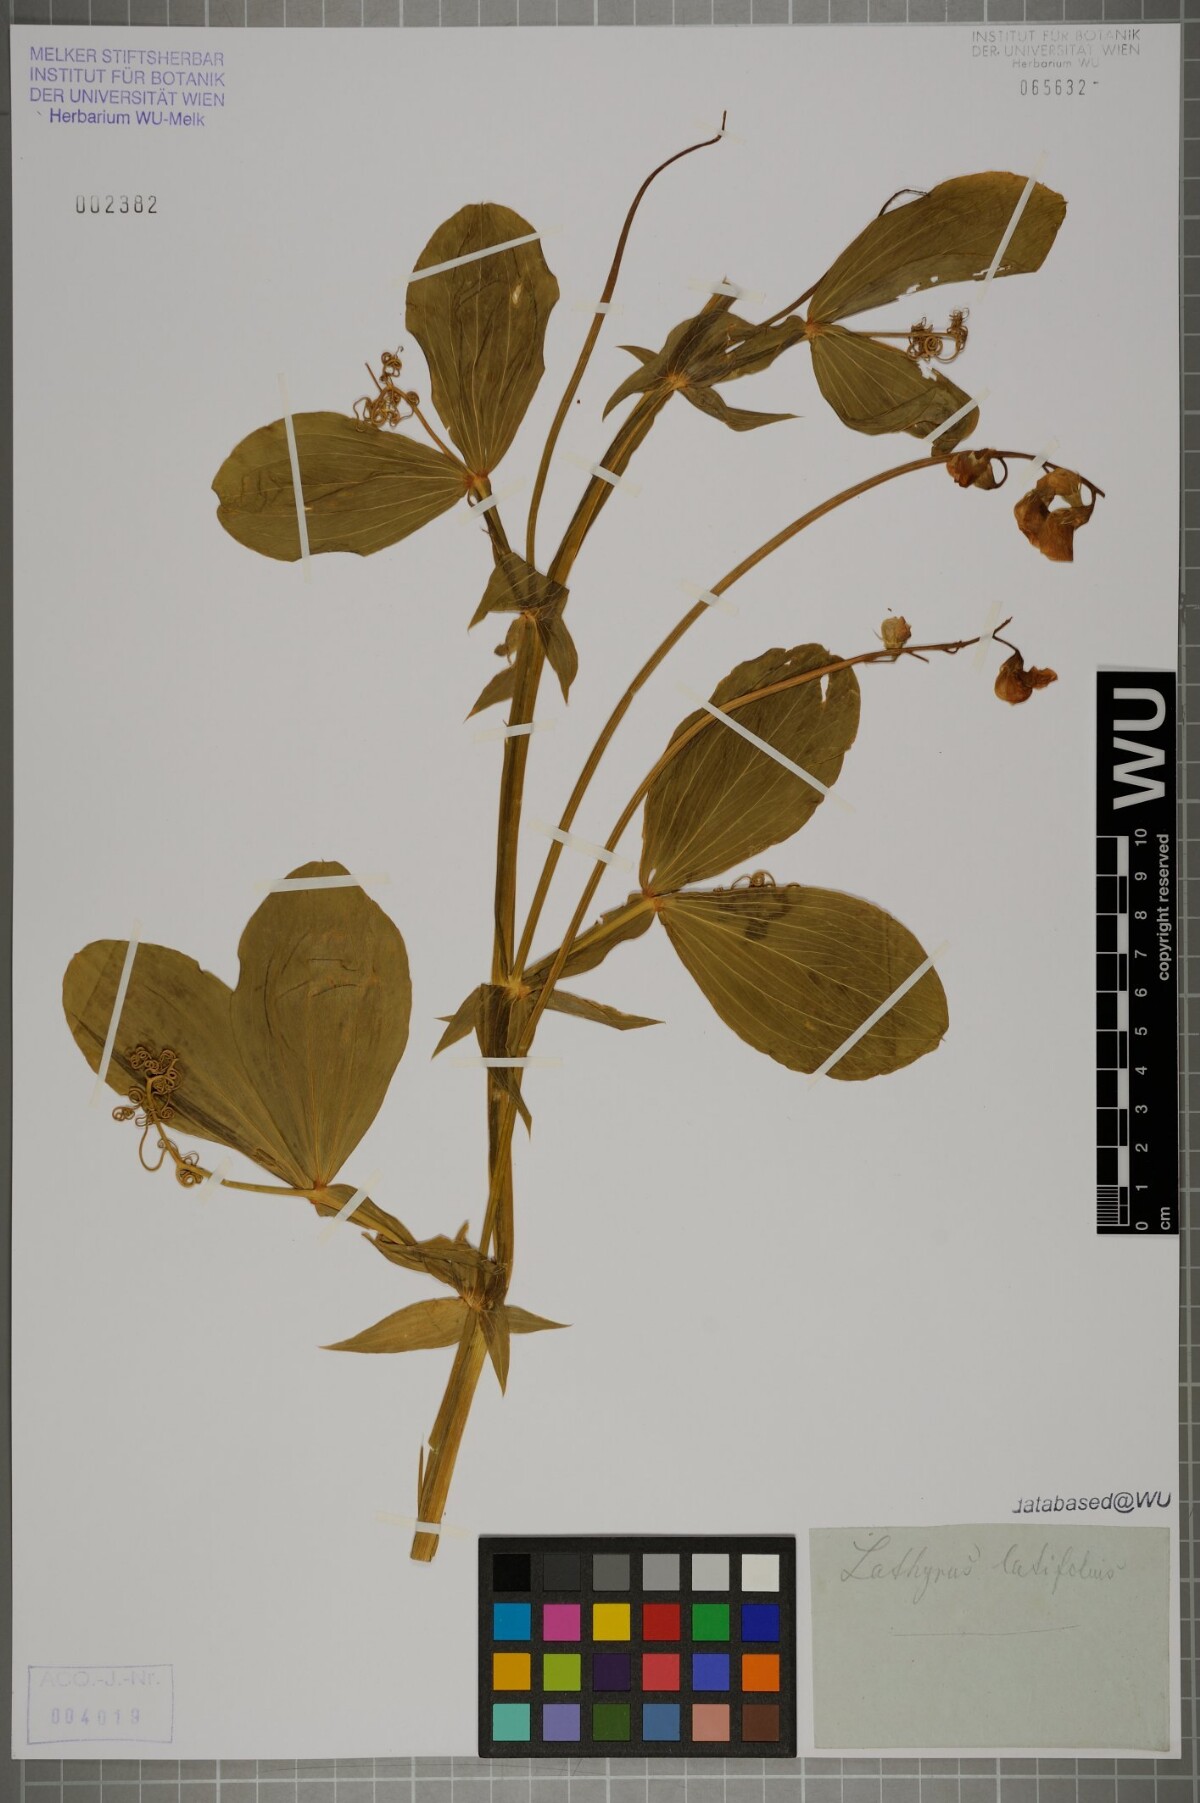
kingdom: Plantae
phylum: Tracheophyta
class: Magnoliopsida
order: Fabales
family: Fabaceae
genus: Lathyrus
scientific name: Lathyrus latifolius
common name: Perennial pea
